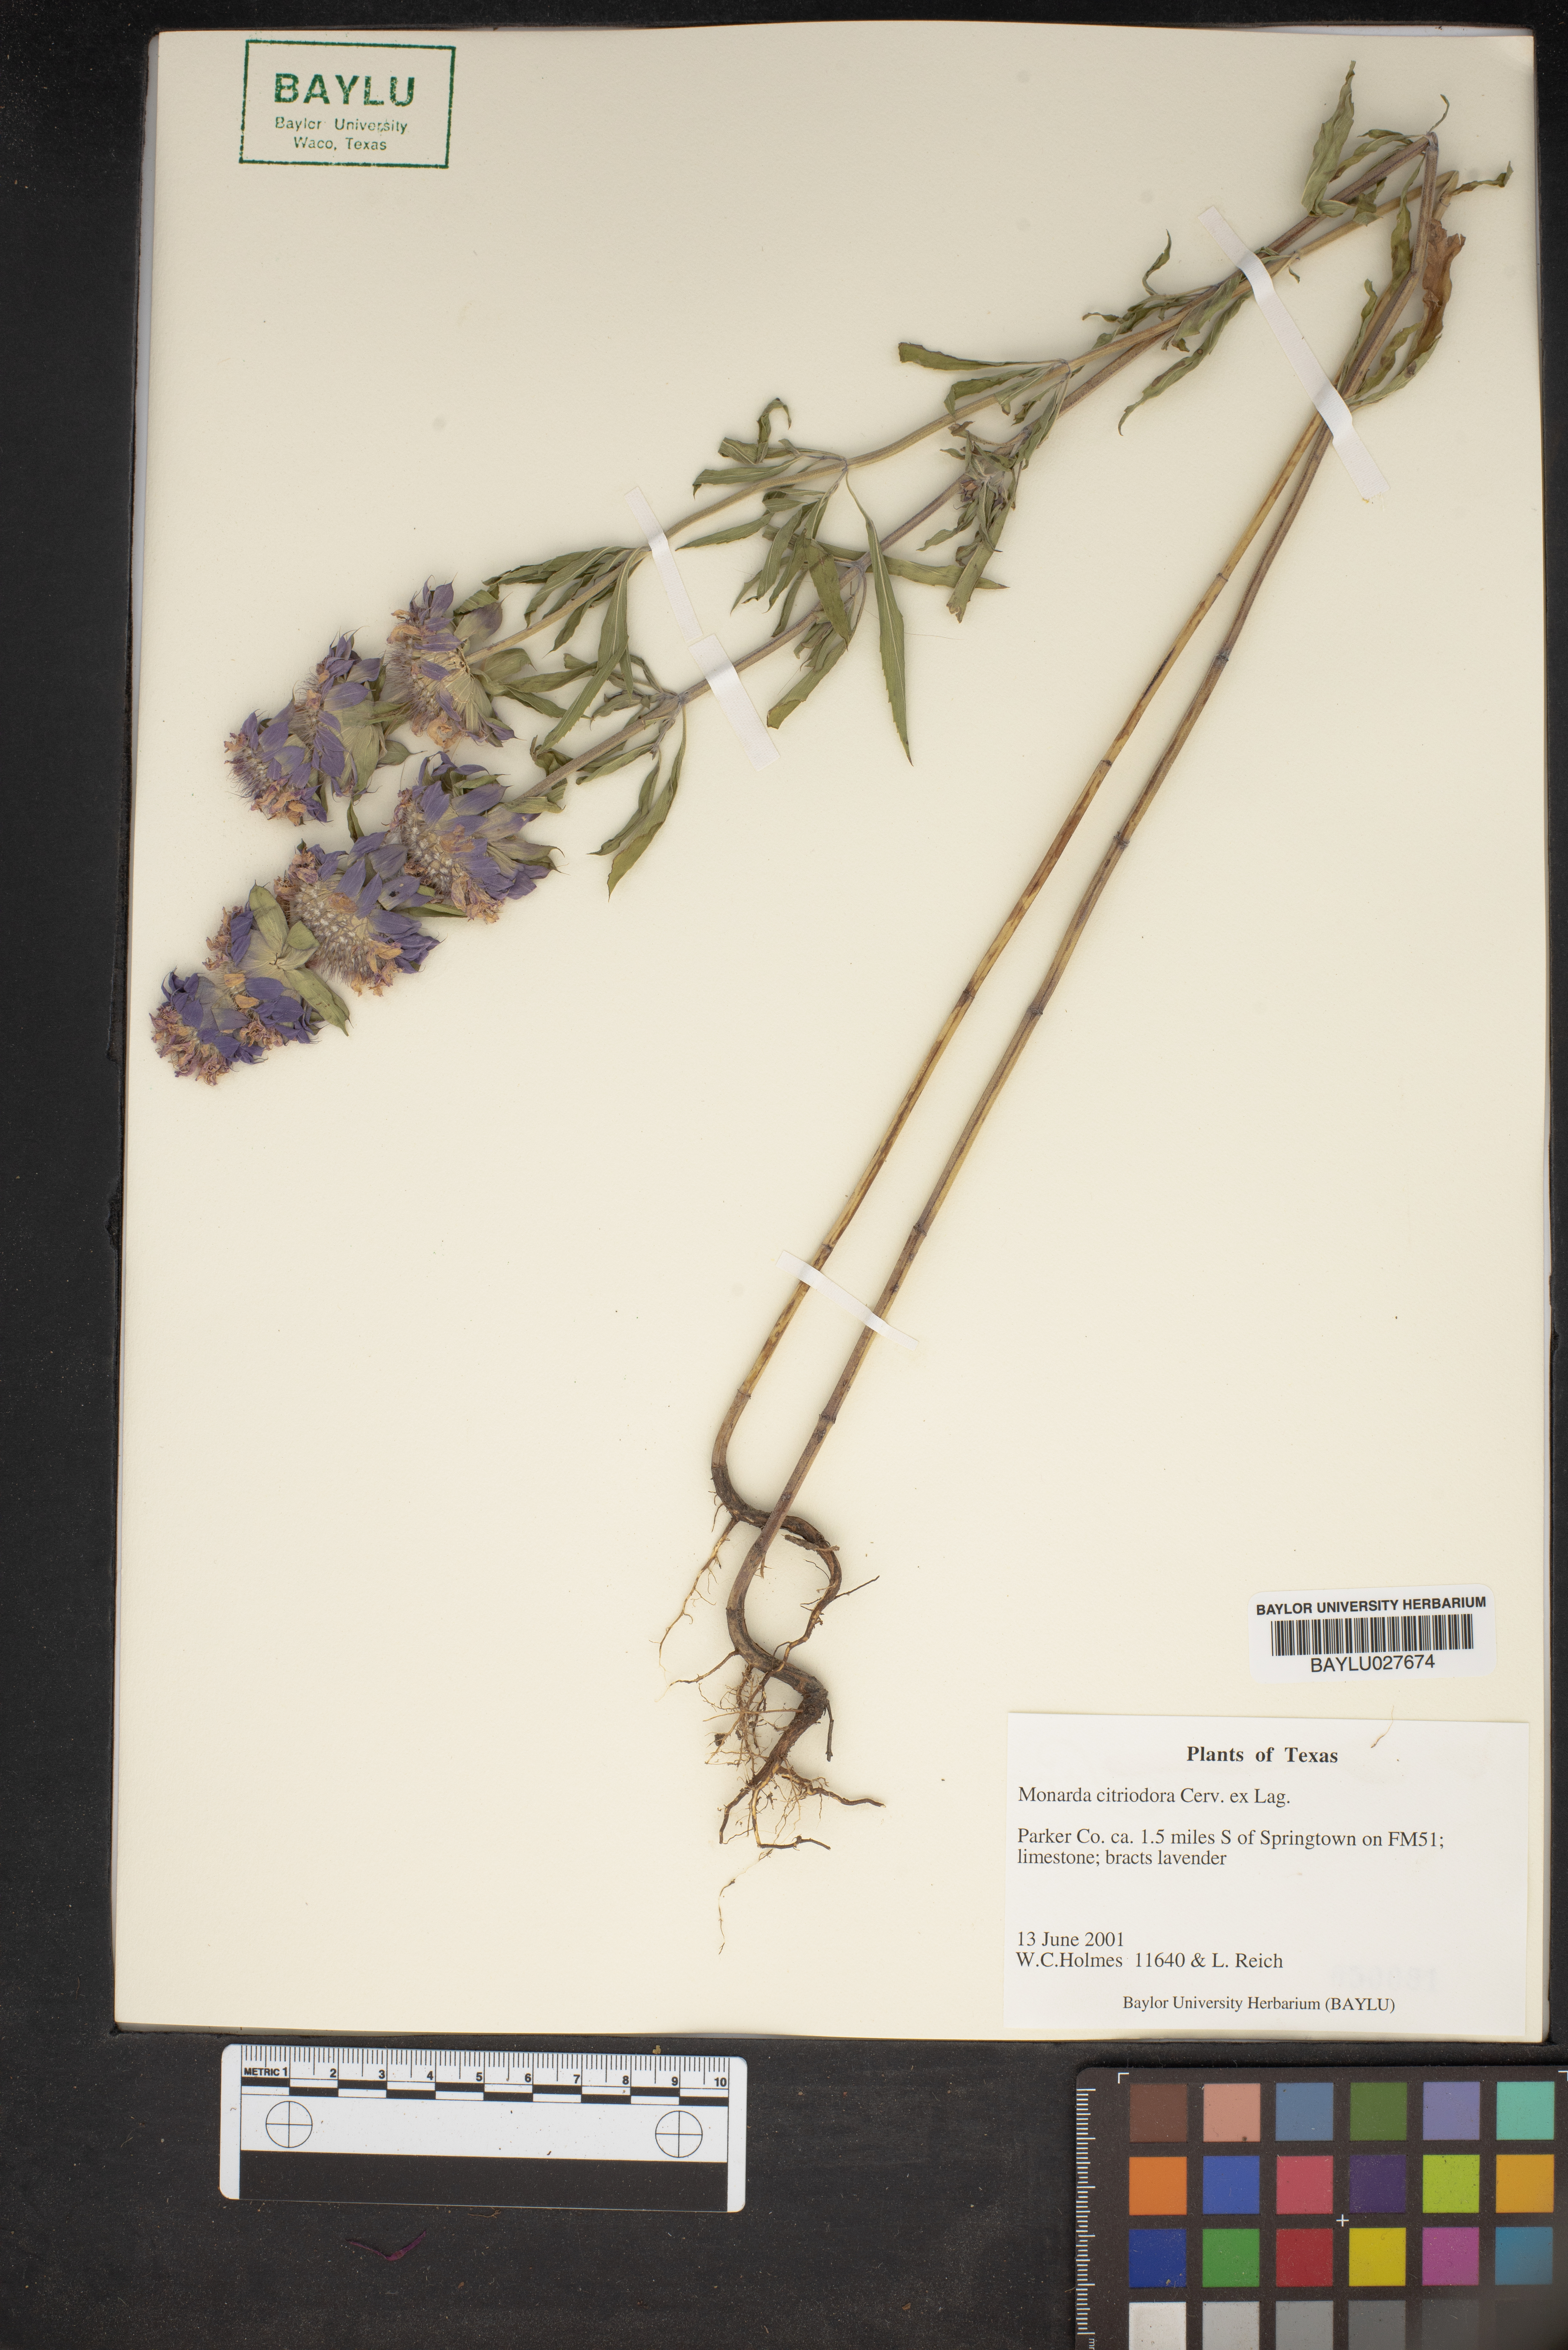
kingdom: Plantae
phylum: Tracheophyta
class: Magnoliopsida
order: Lamiales
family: Lamiaceae
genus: Monarda
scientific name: Monarda citriodora
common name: Lemon beebalm
